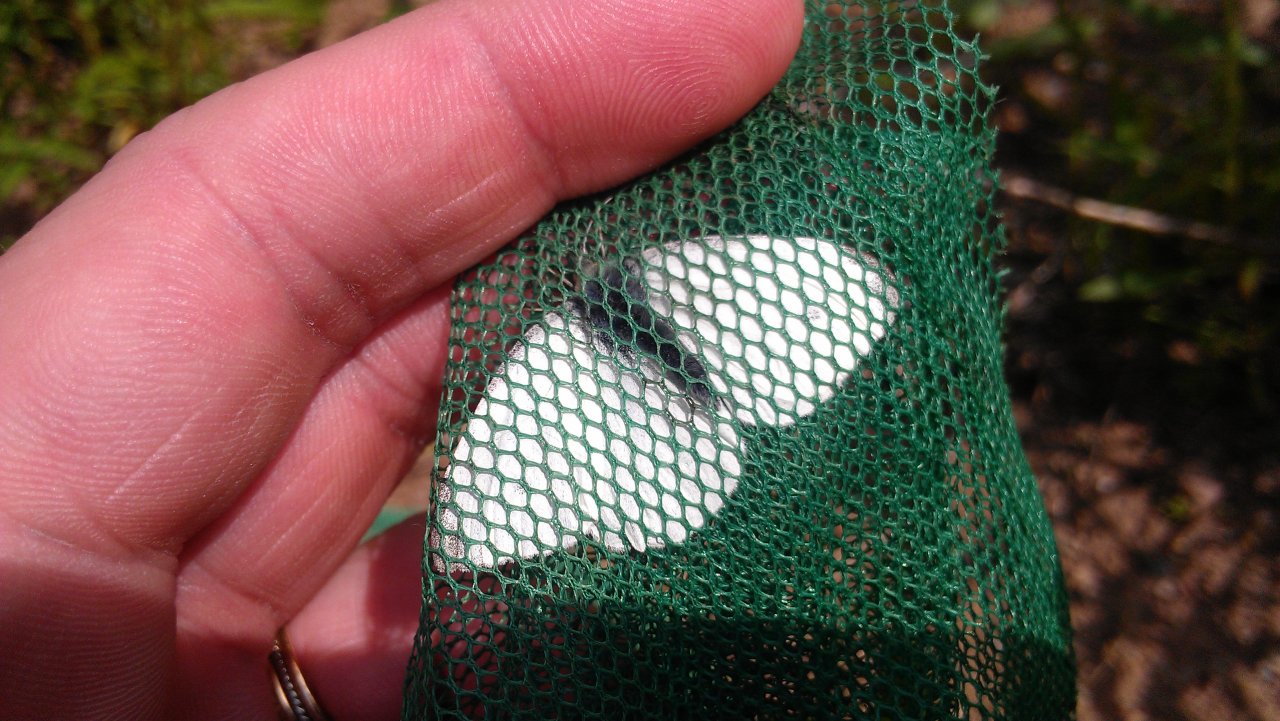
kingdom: Animalia
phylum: Arthropoda
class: Insecta
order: Lepidoptera
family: Pieridae
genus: Pieris
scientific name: Pieris rapae
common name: Cabbage White
